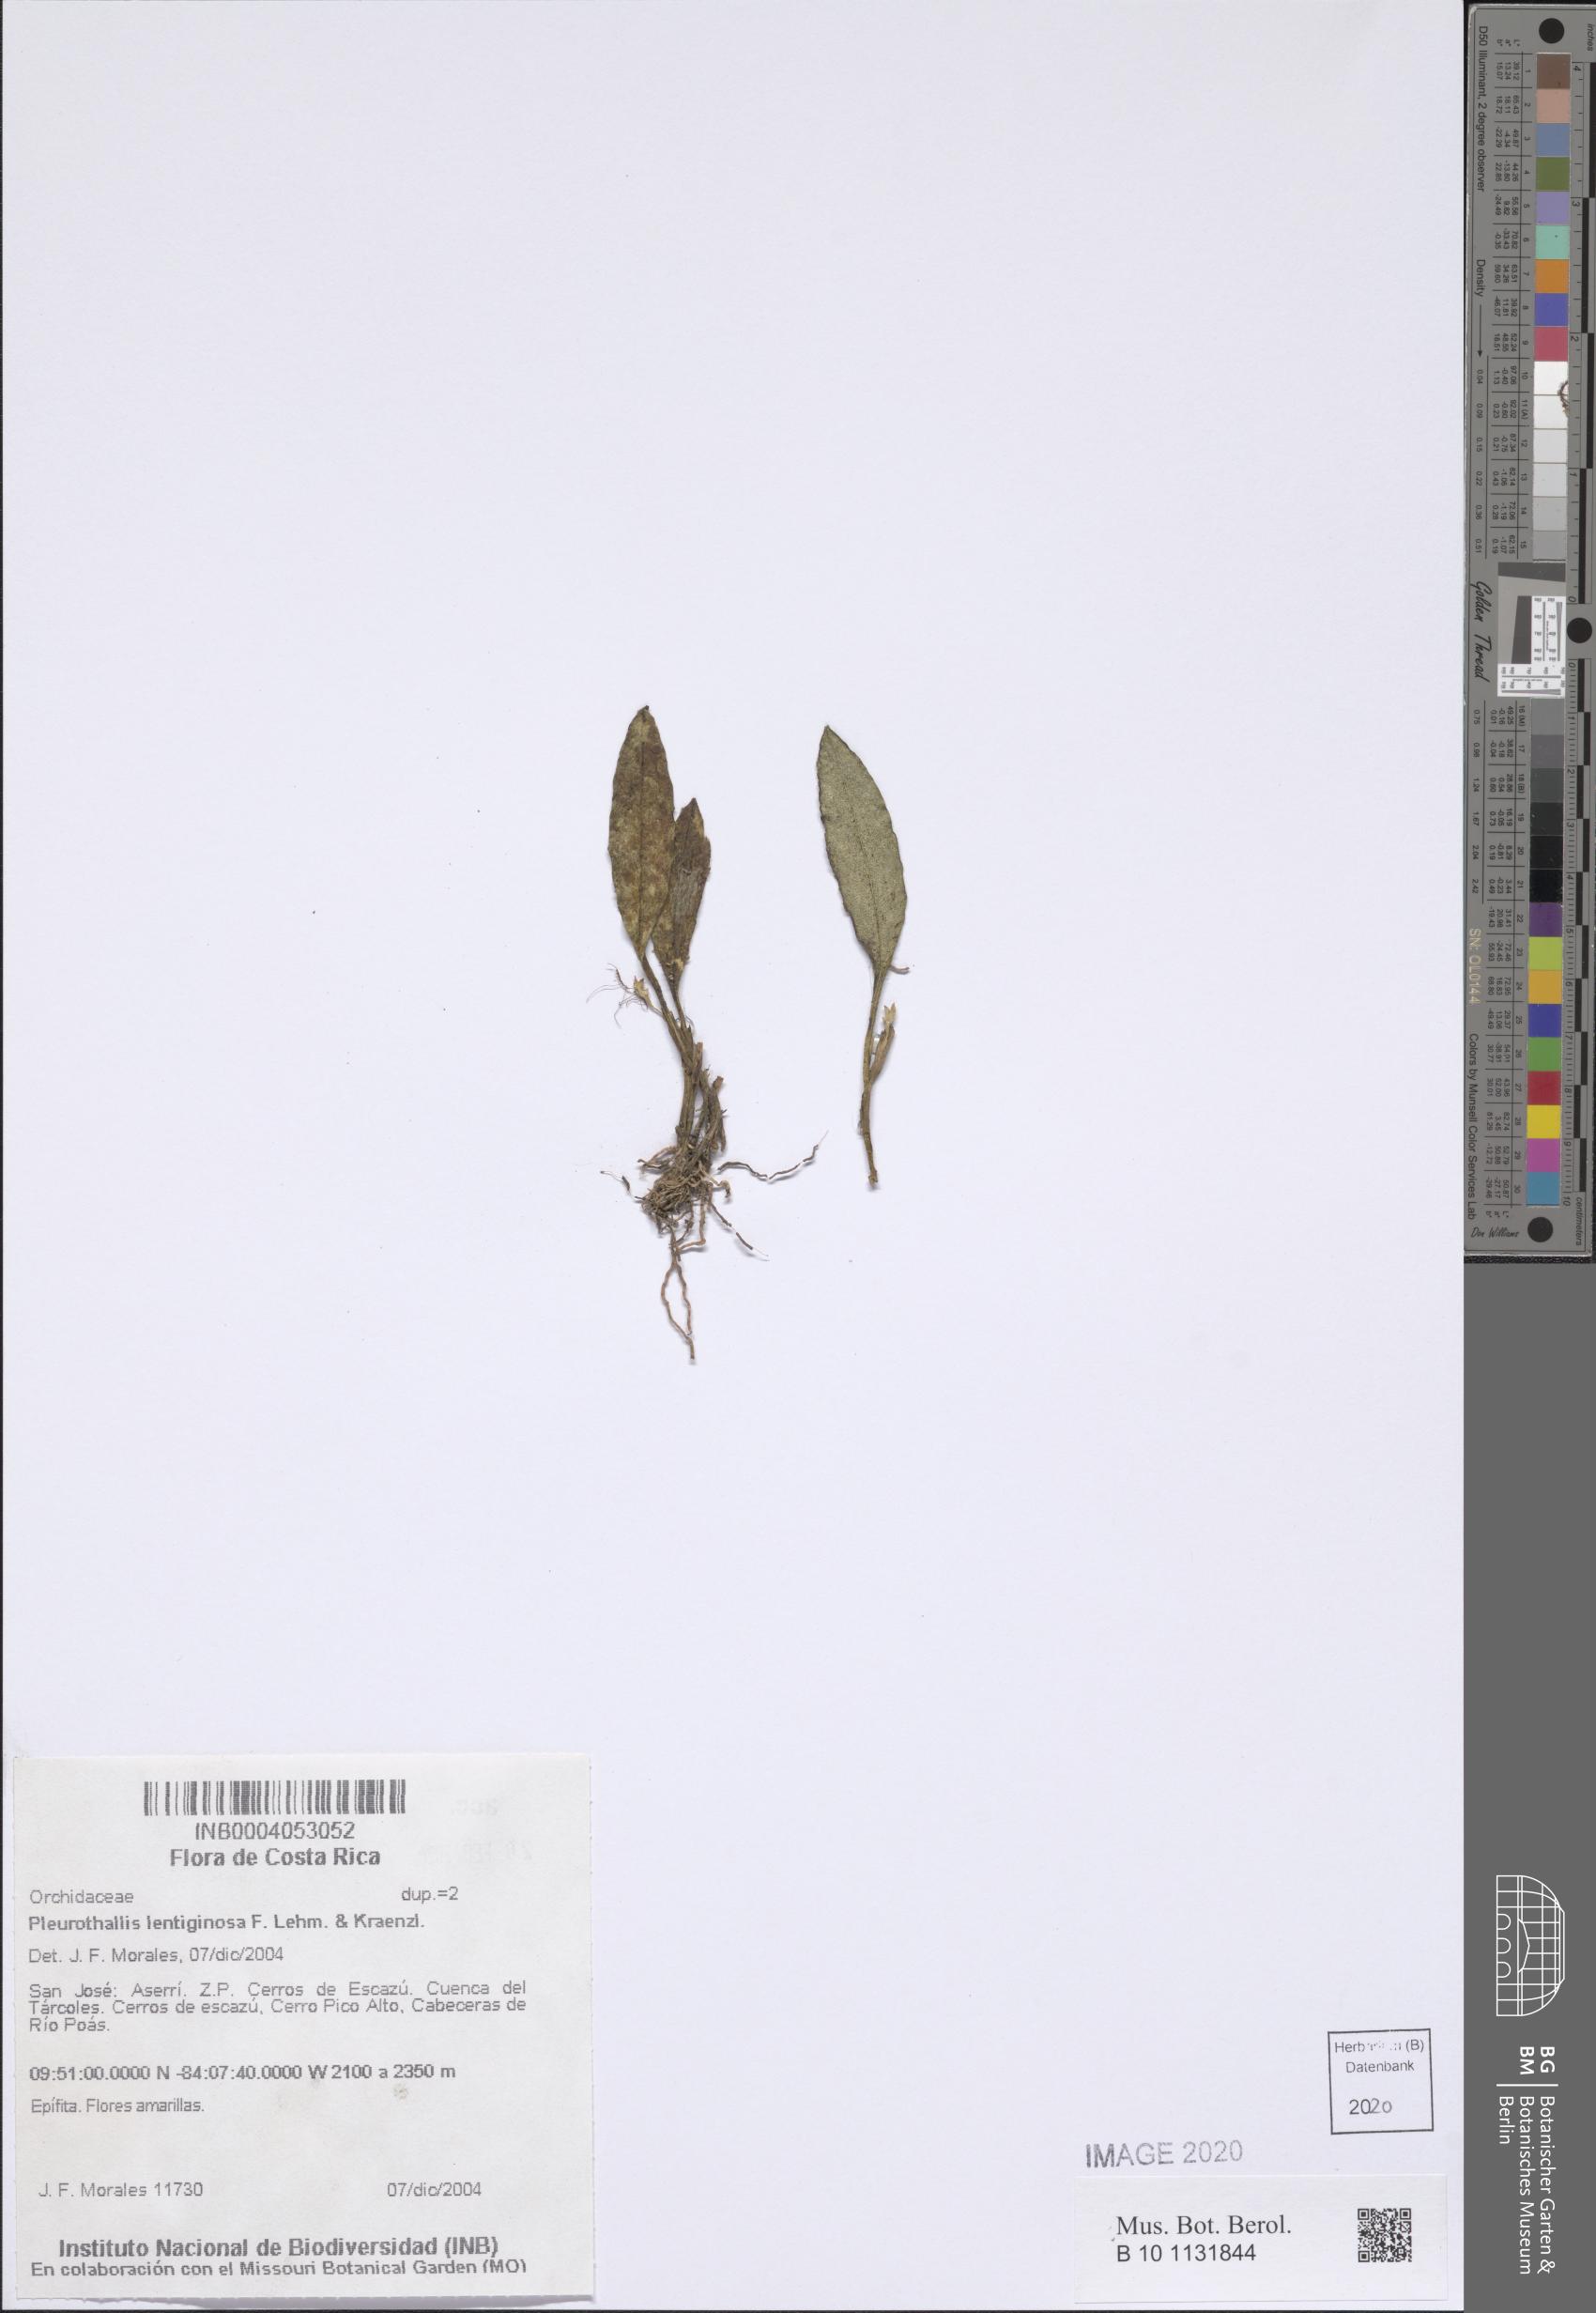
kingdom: Plantae
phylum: Tracheophyta
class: Liliopsida
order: Asparagales
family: Orchidaceae
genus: Specklinia
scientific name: Specklinia lentiginosa
